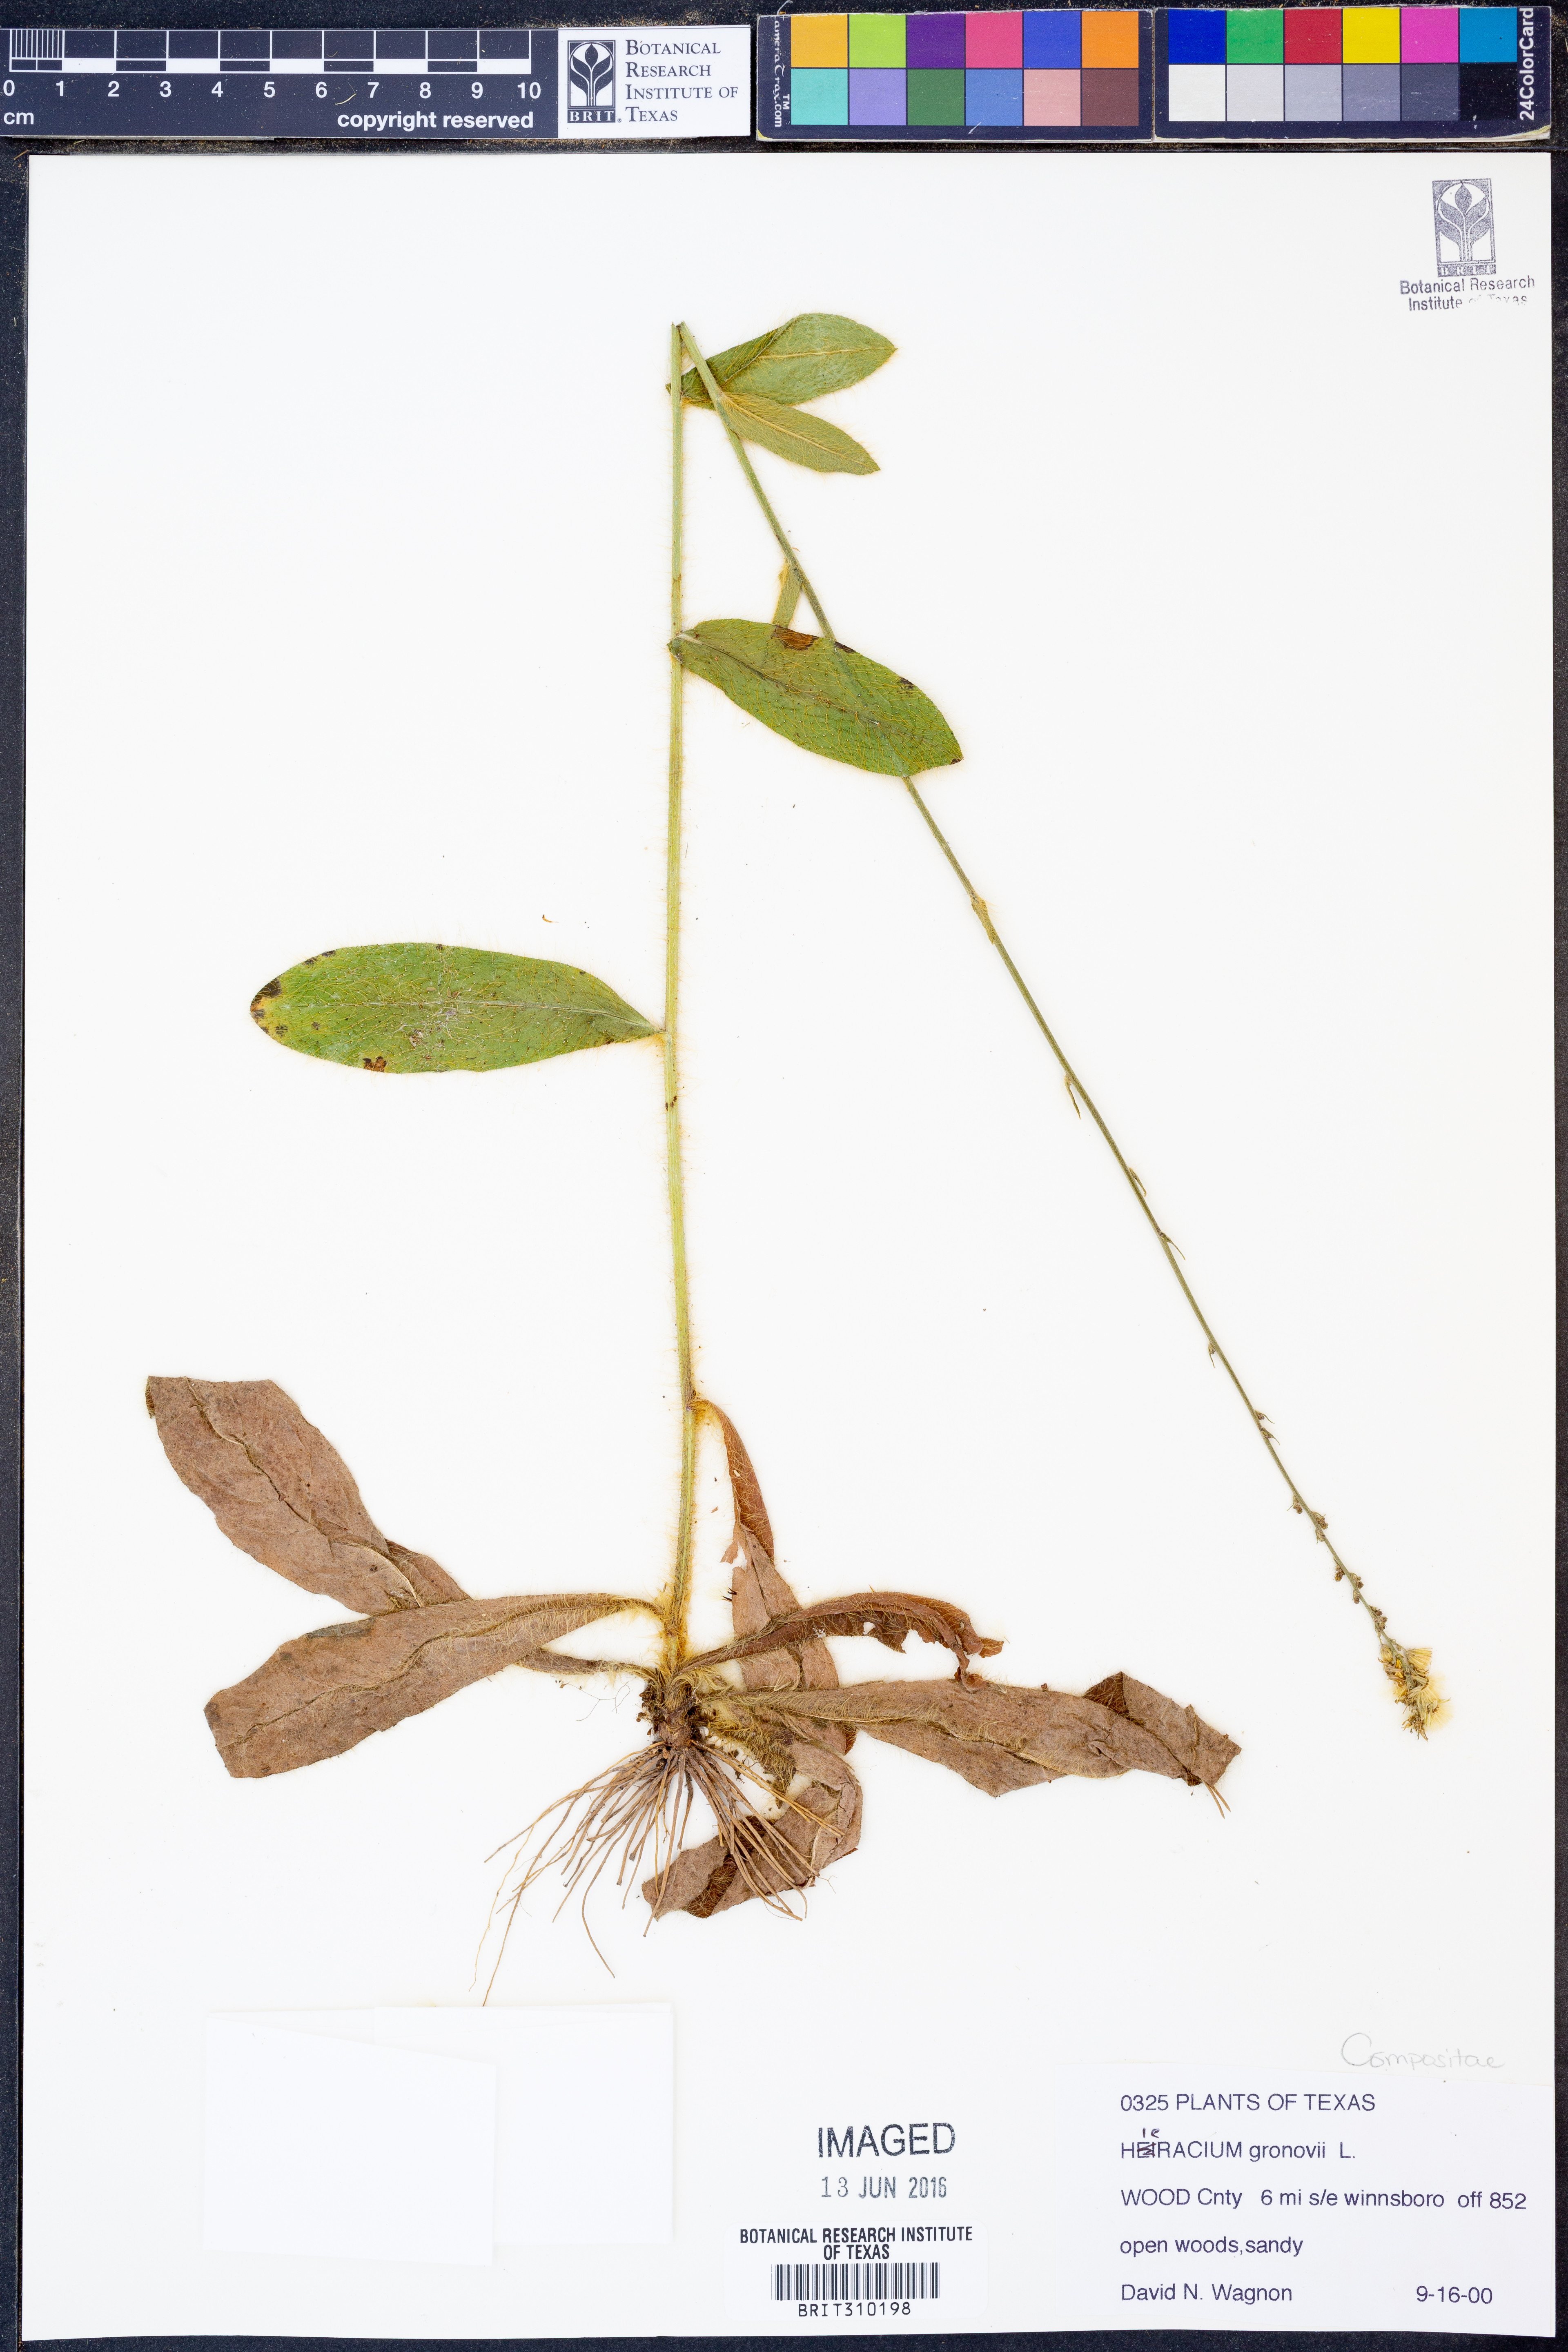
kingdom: Plantae
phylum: Tracheophyta
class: Magnoliopsida
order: Asterales
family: Asteraceae
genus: Hieracium
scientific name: Hieracium gronovii
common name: Beaked hawkweed
